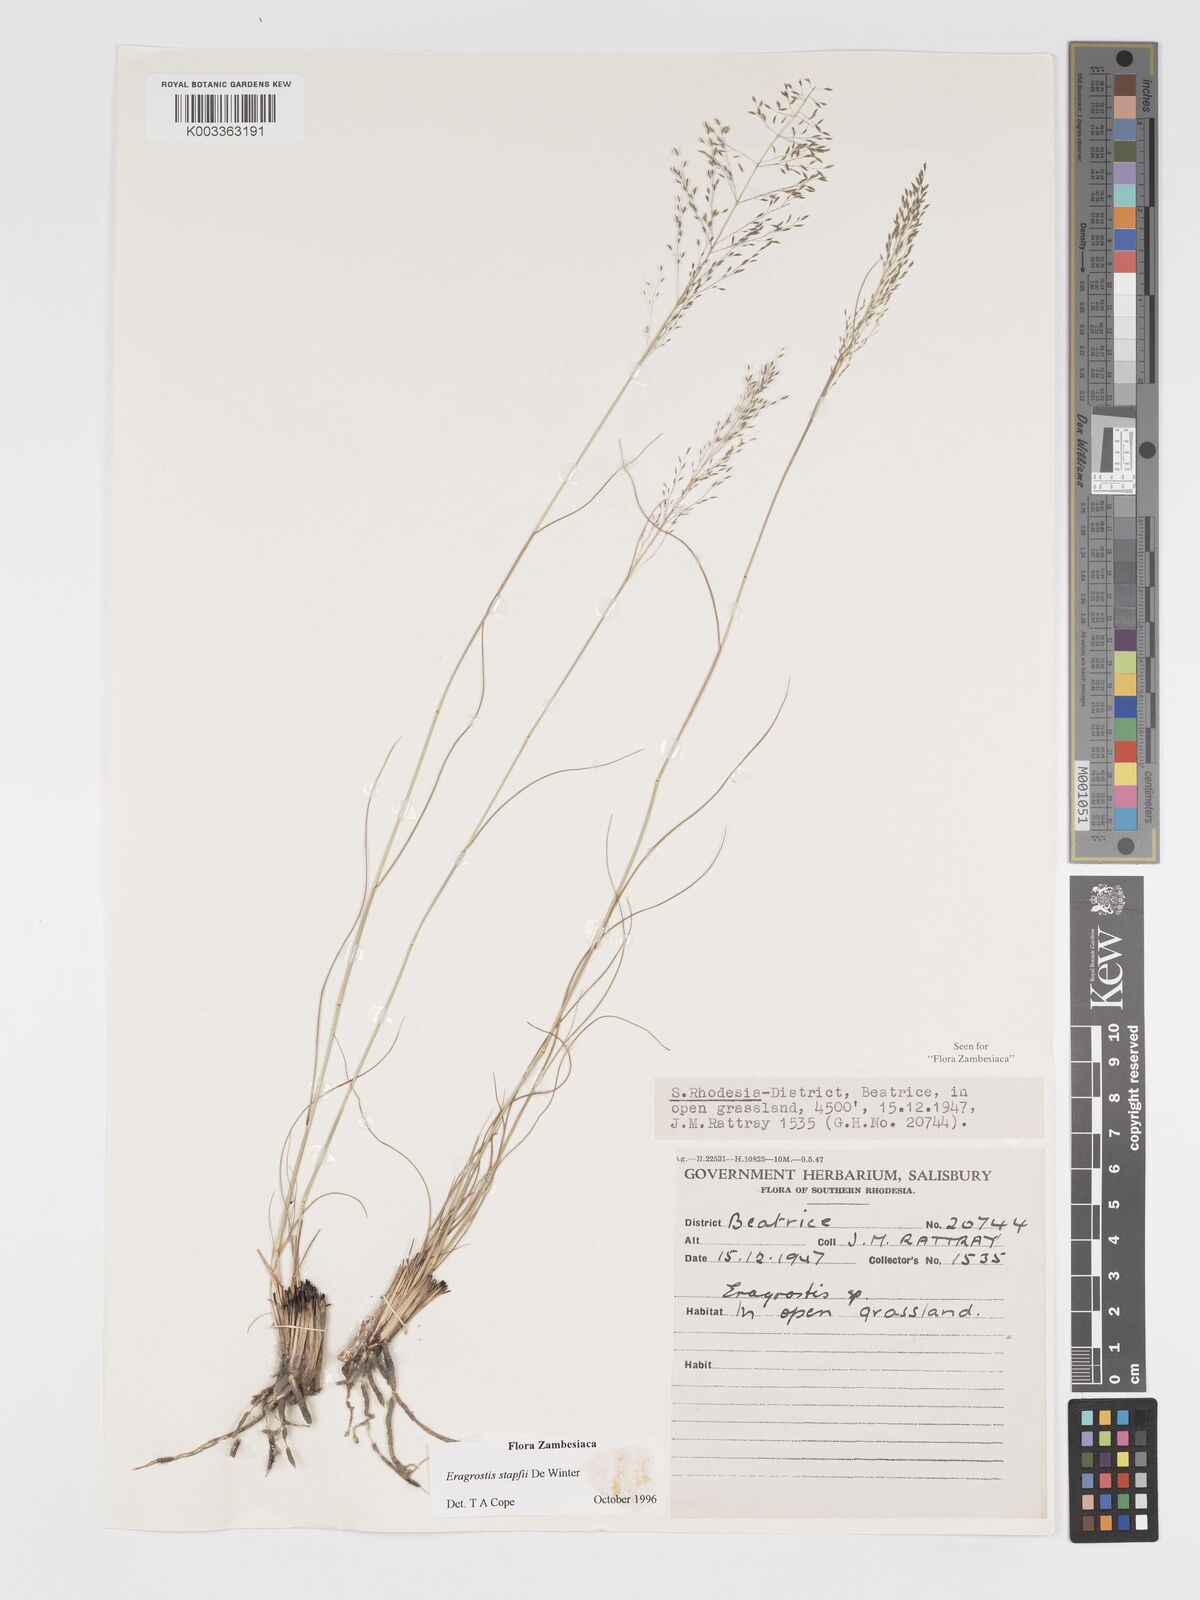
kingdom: Plantae
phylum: Tracheophyta
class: Liliopsida
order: Poales
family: Poaceae
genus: Eragrostis
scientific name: Eragrostis stapfii
